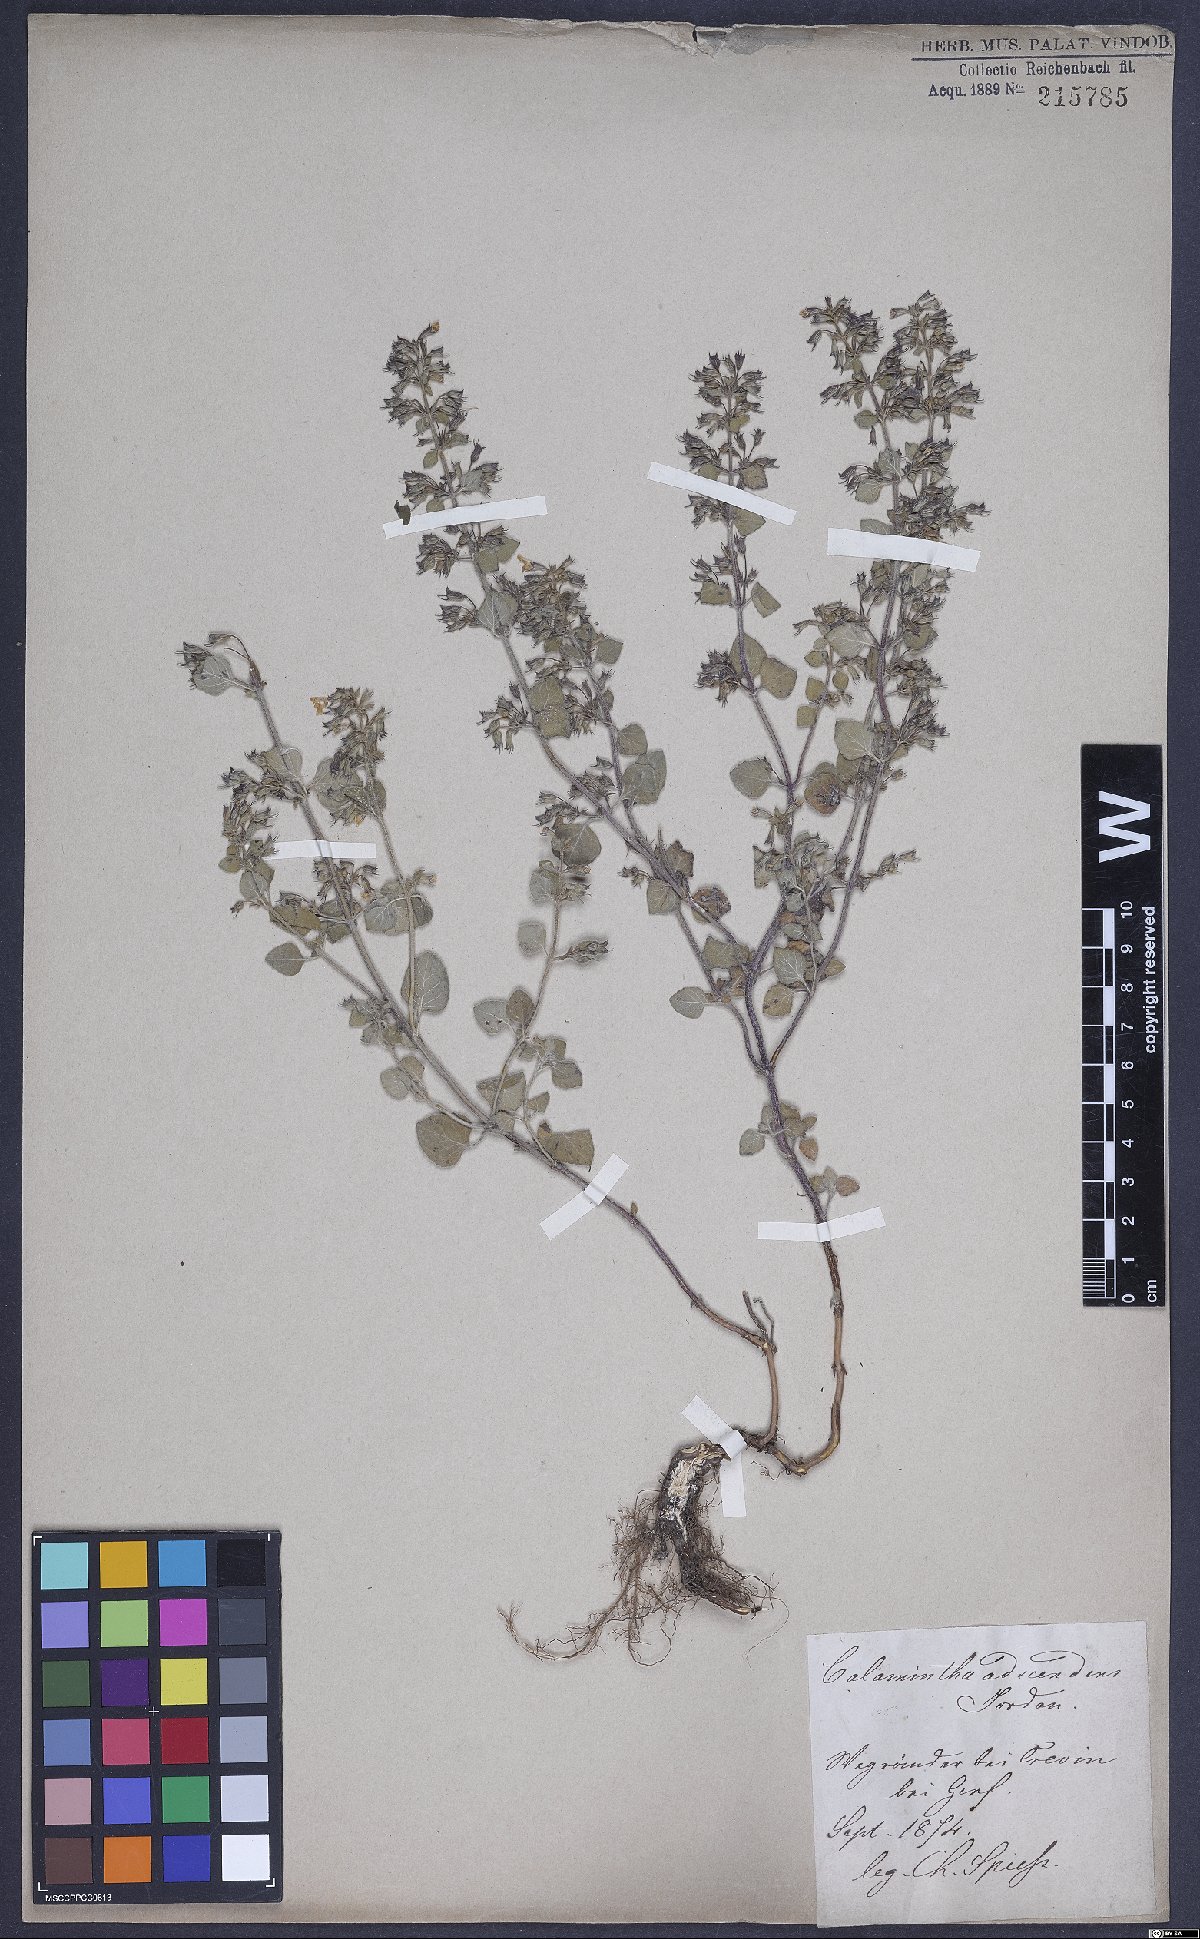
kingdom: Plantae
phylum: Tracheophyta
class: Magnoliopsida
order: Lamiales
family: Lamiaceae
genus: Clinopodium
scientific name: Clinopodium menthifolium
